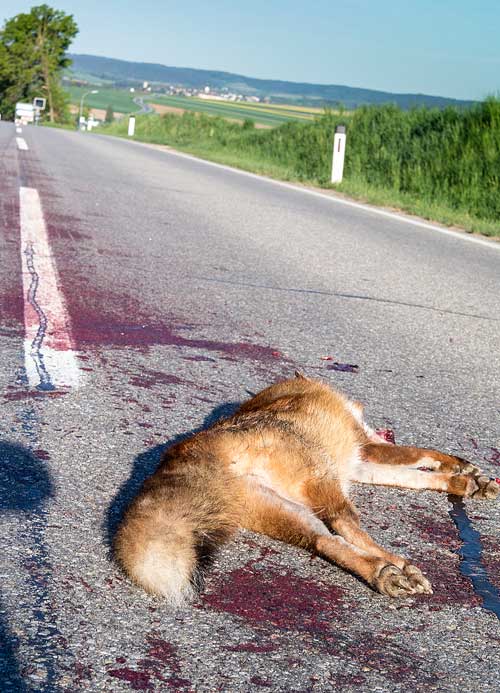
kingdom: Animalia
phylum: Chordata
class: Mammalia
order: Carnivora
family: Canidae
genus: Vulpes
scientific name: Vulpes vulpes
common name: Red fox
